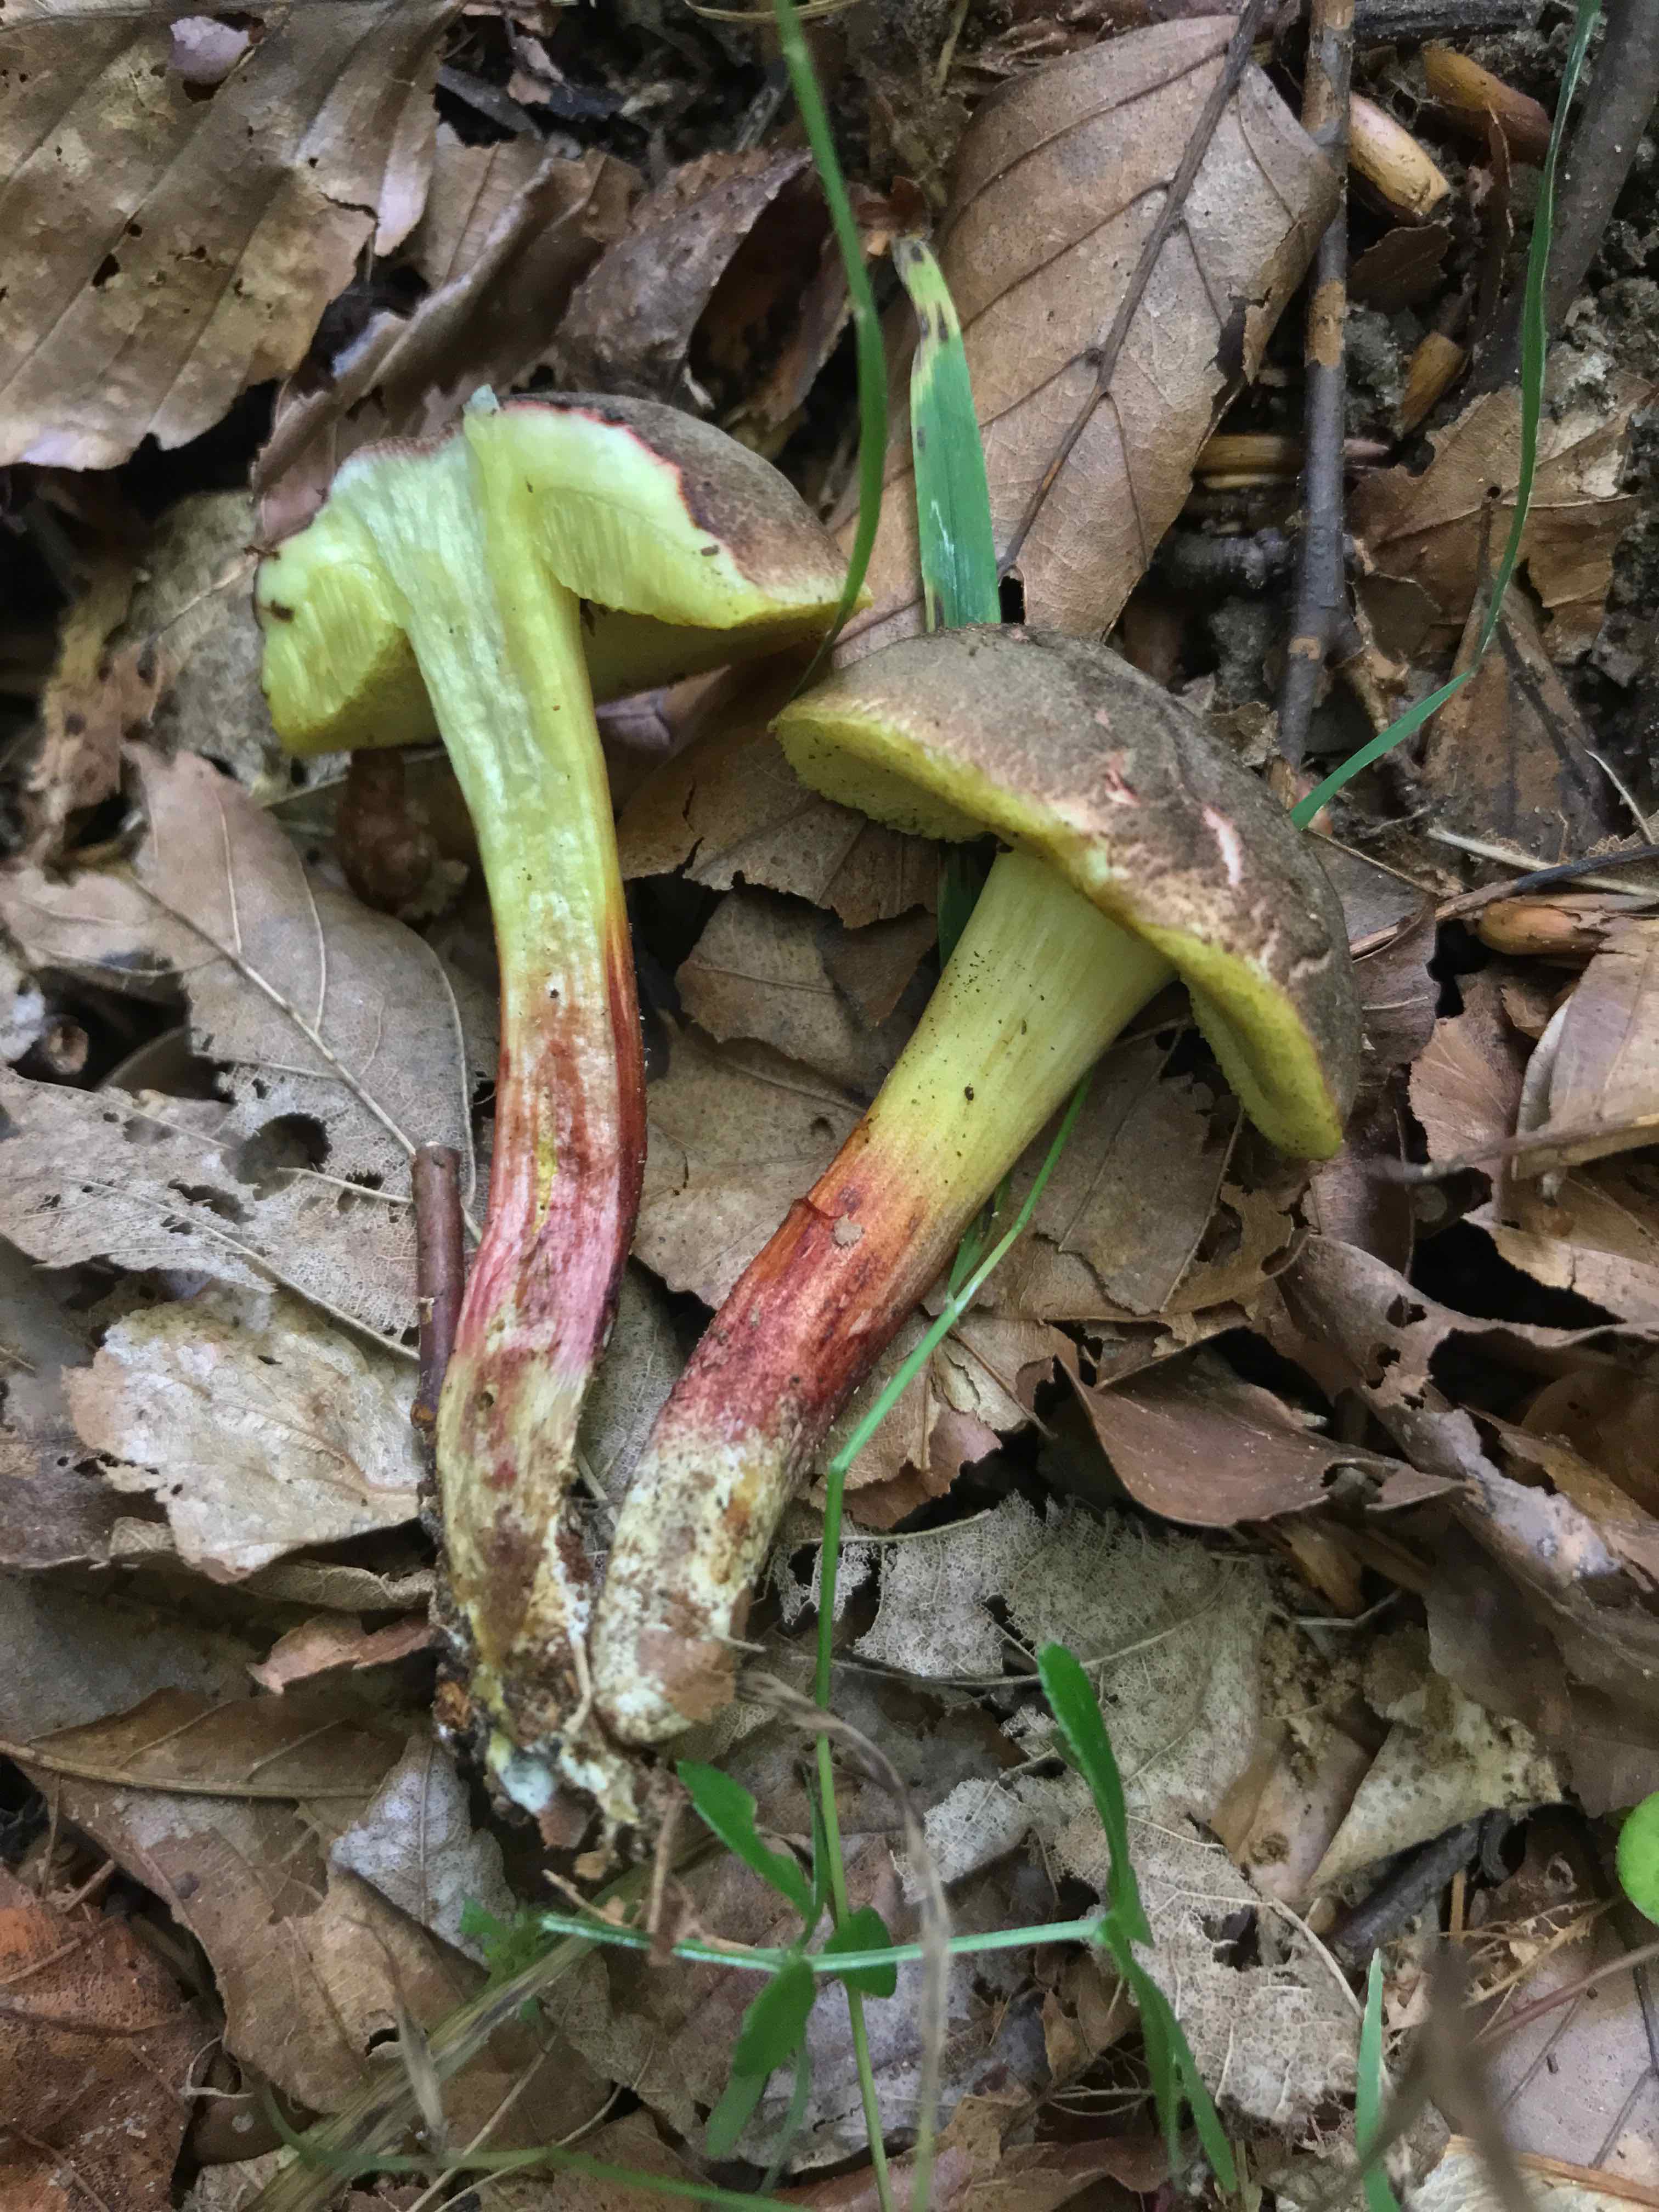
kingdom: Fungi
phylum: Basidiomycota
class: Agaricomycetes
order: Boletales
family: Boletaceae
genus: Xerocomellus
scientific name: Xerocomellus chrysenteron
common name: rødsprukken rørhat
